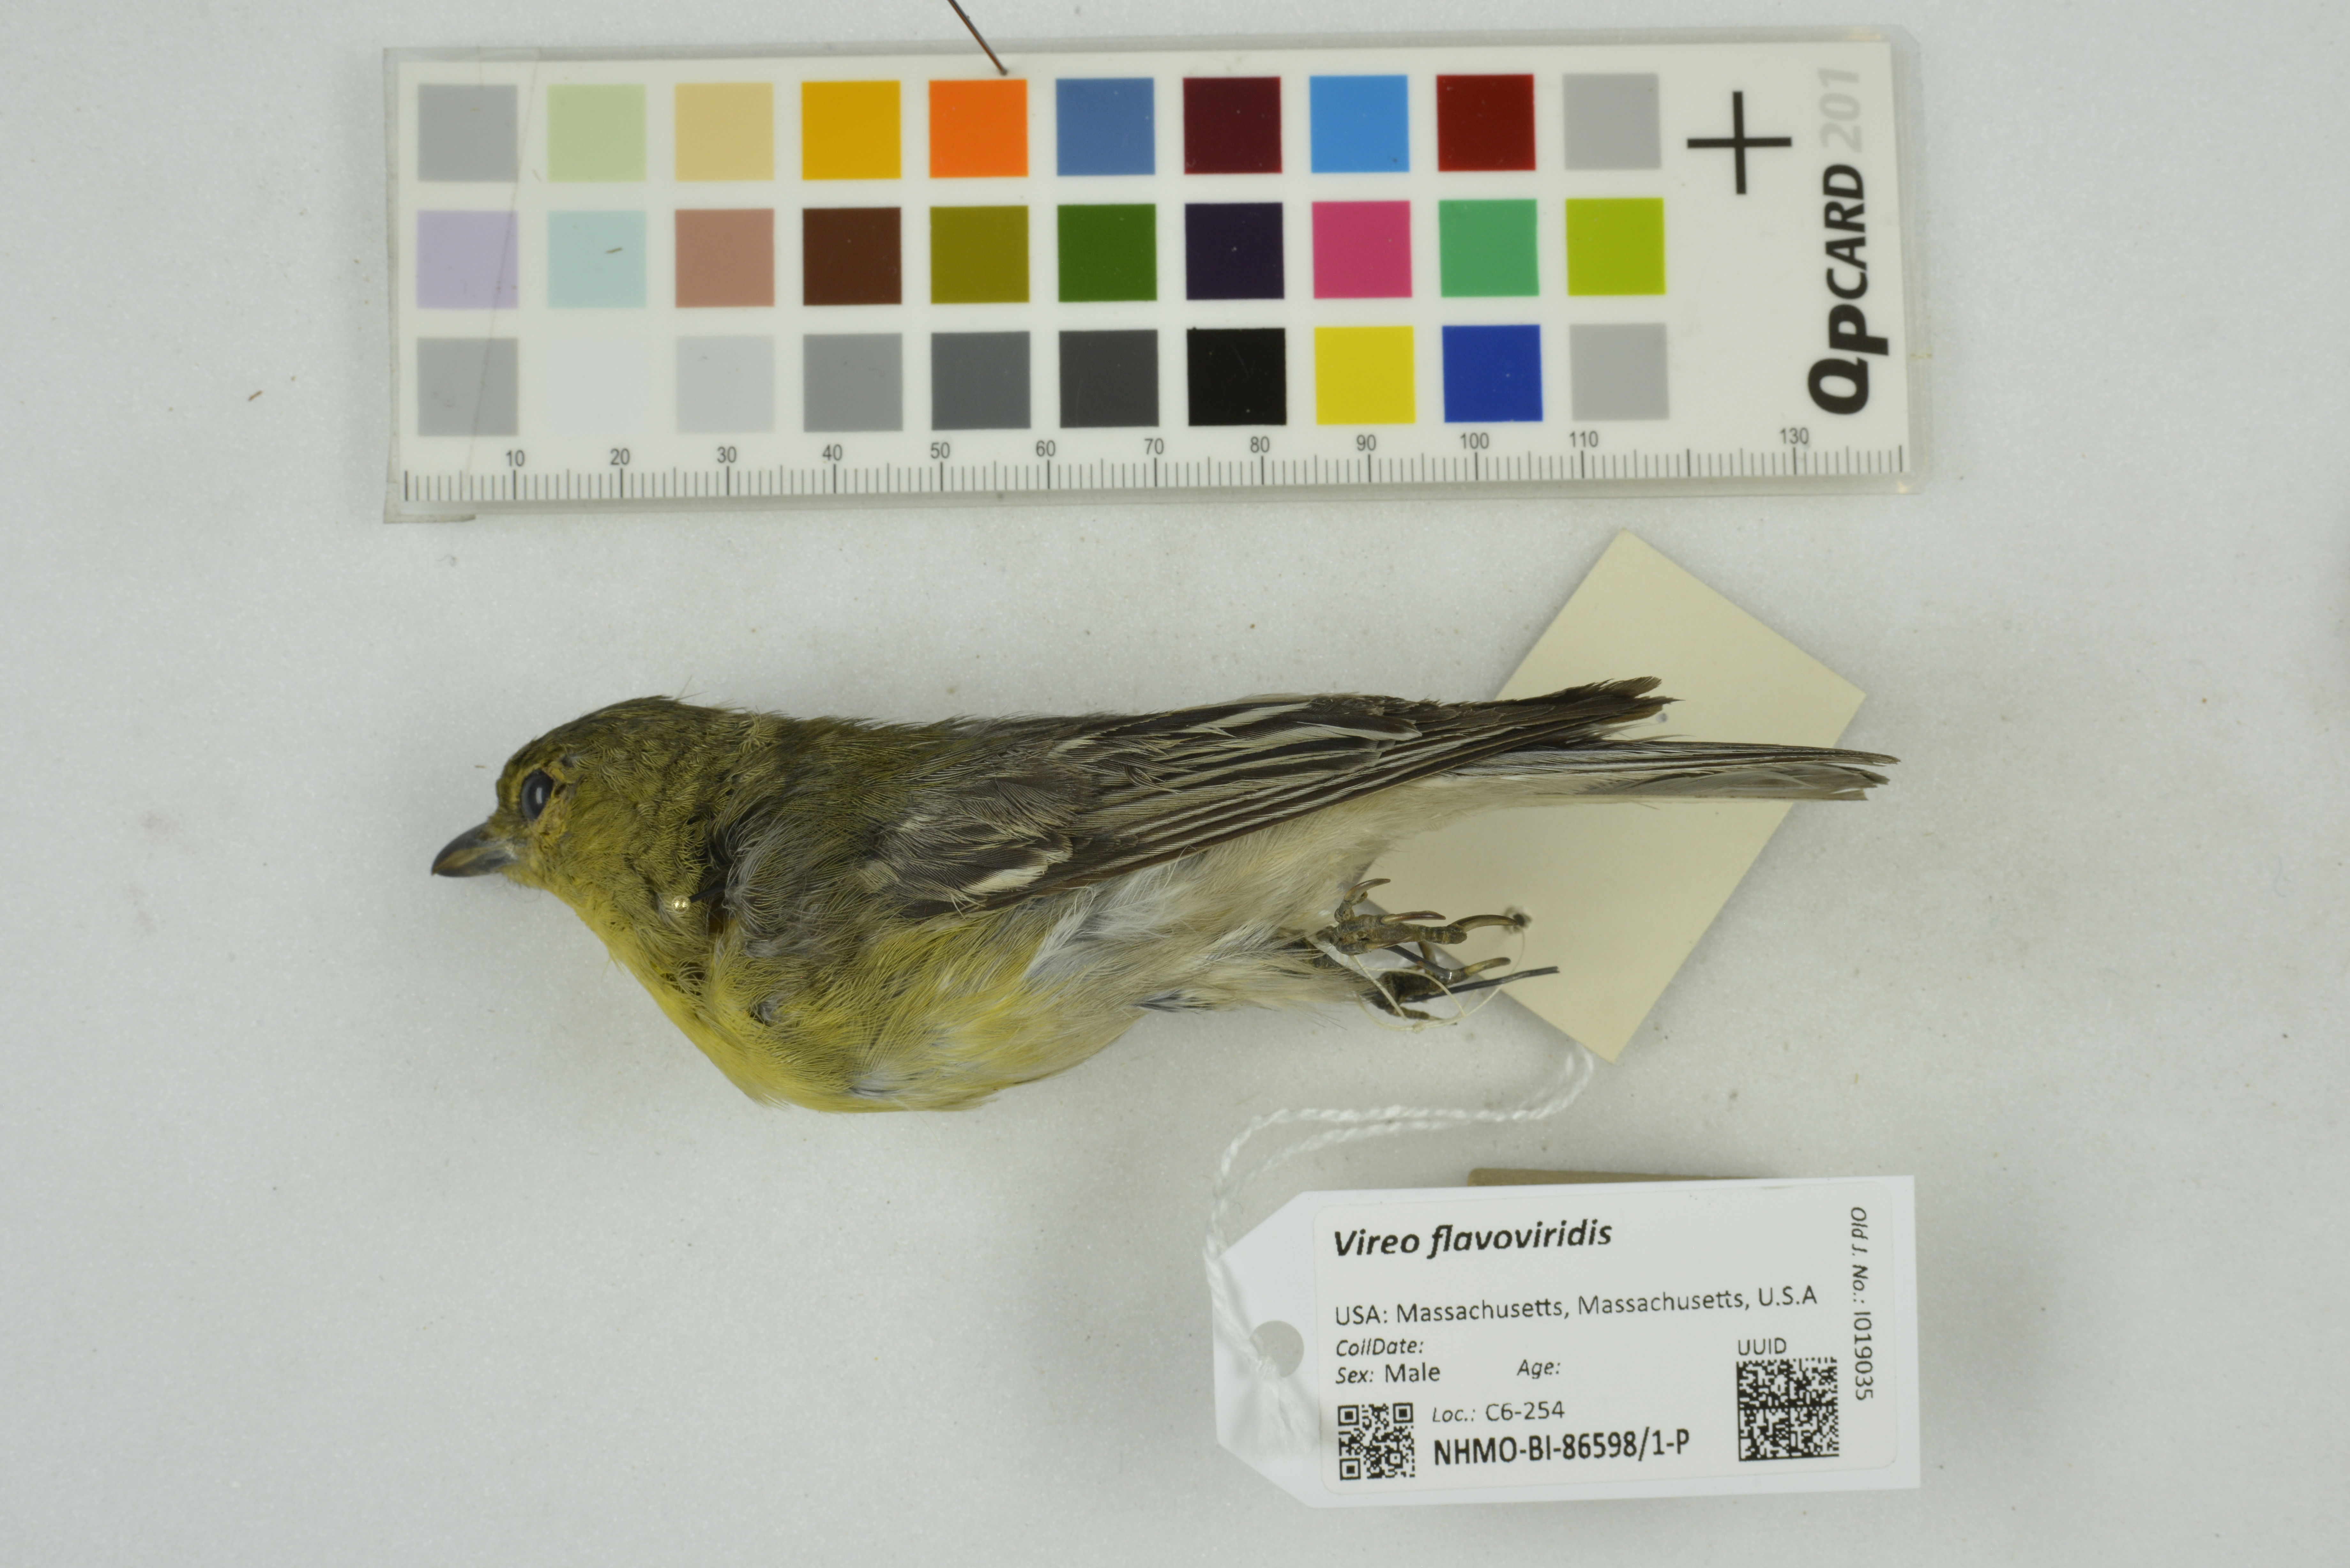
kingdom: Animalia
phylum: Chordata
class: Aves
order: Passeriformes
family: Vireonidae
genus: Vireo
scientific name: Vireo flavoviridis
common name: Yellow-green vireo
